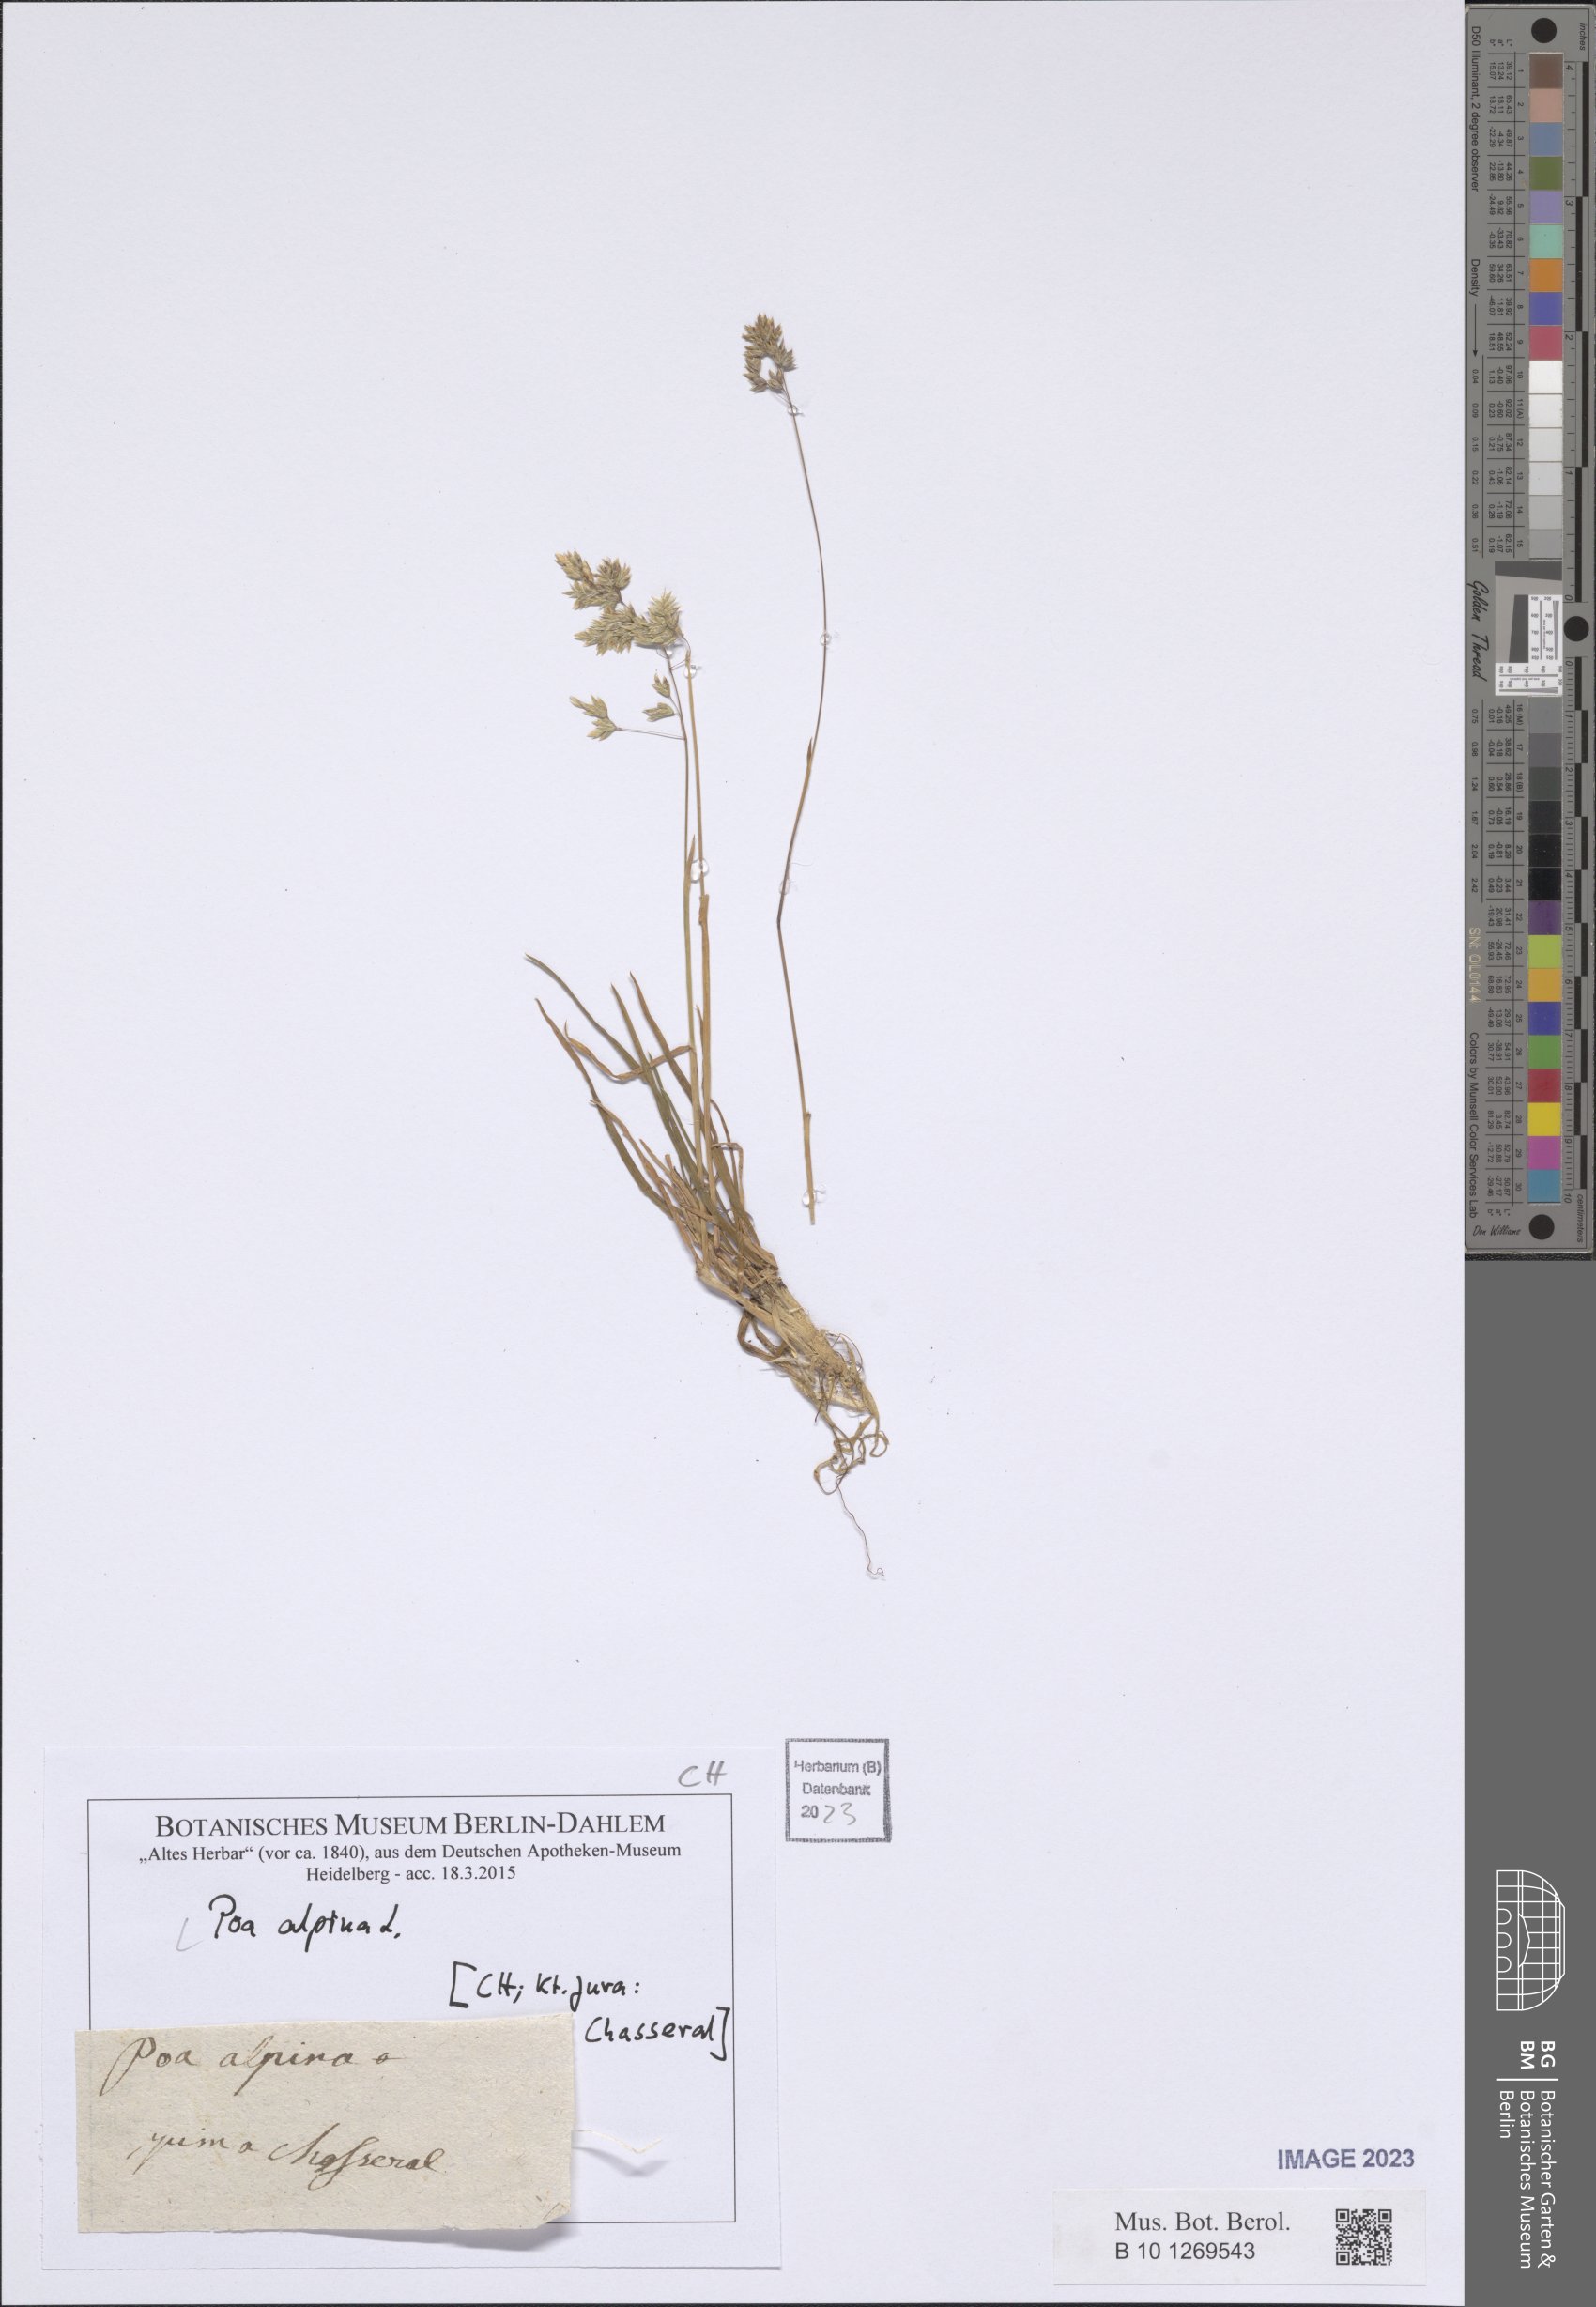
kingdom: Plantae
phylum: Tracheophyta
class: Liliopsida
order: Poales
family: Poaceae
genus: Poa
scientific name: Poa alpina
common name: Alpine bluegrass
